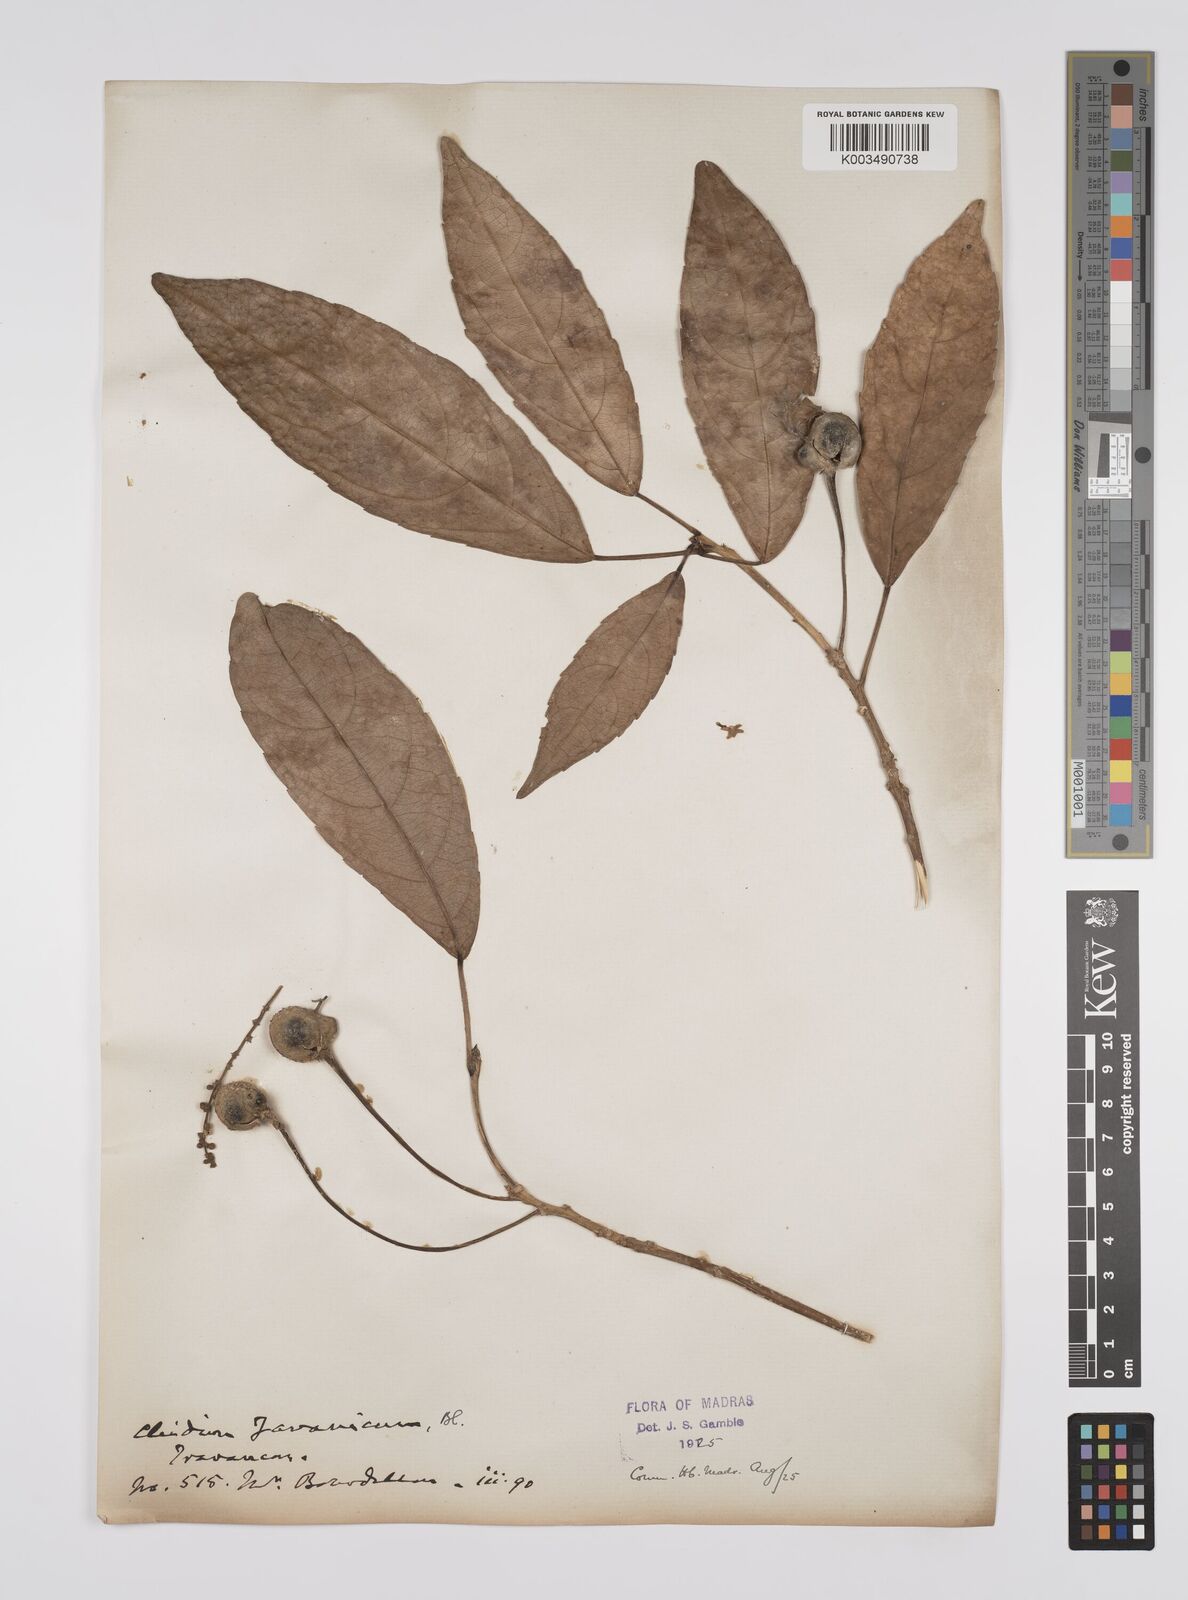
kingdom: Plantae
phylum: Tracheophyta
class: Magnoliopsida
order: Malpighiales
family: Euphorbiaceae
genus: Acalypha
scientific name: Acalypha spiciflora
